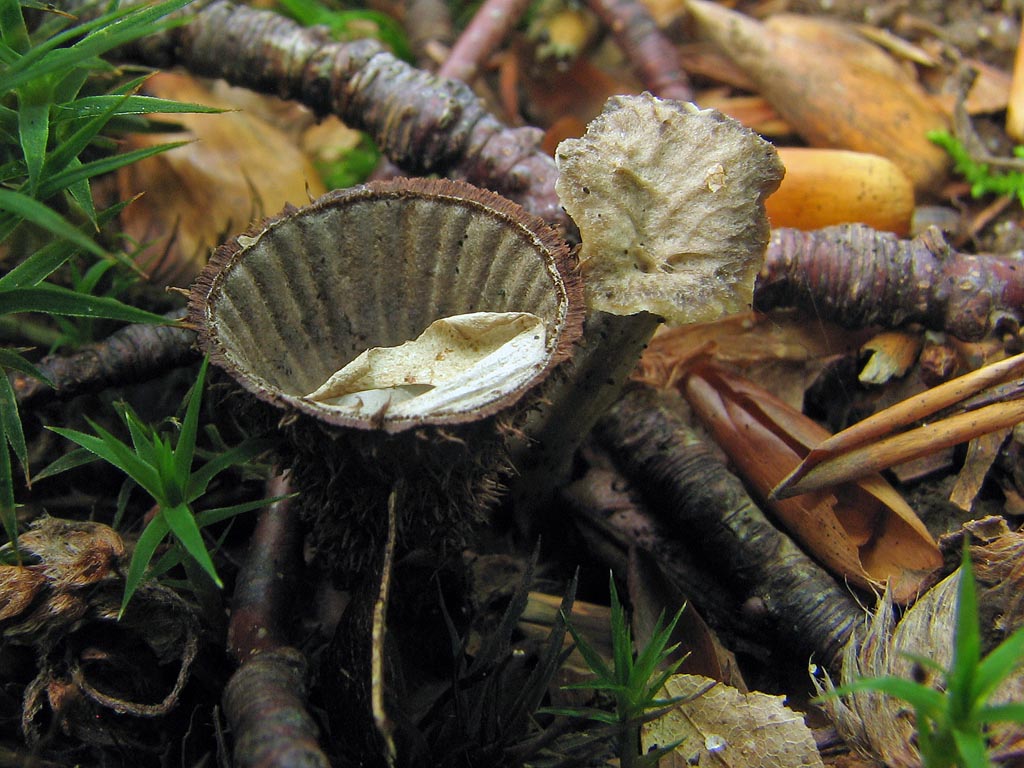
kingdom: Fungi
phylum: Basidiomycota
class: Agaricomycetes
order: Agaricales
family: Agaricaceae
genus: Cyathus
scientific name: Cyathus striatus
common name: stribet redesvamp
